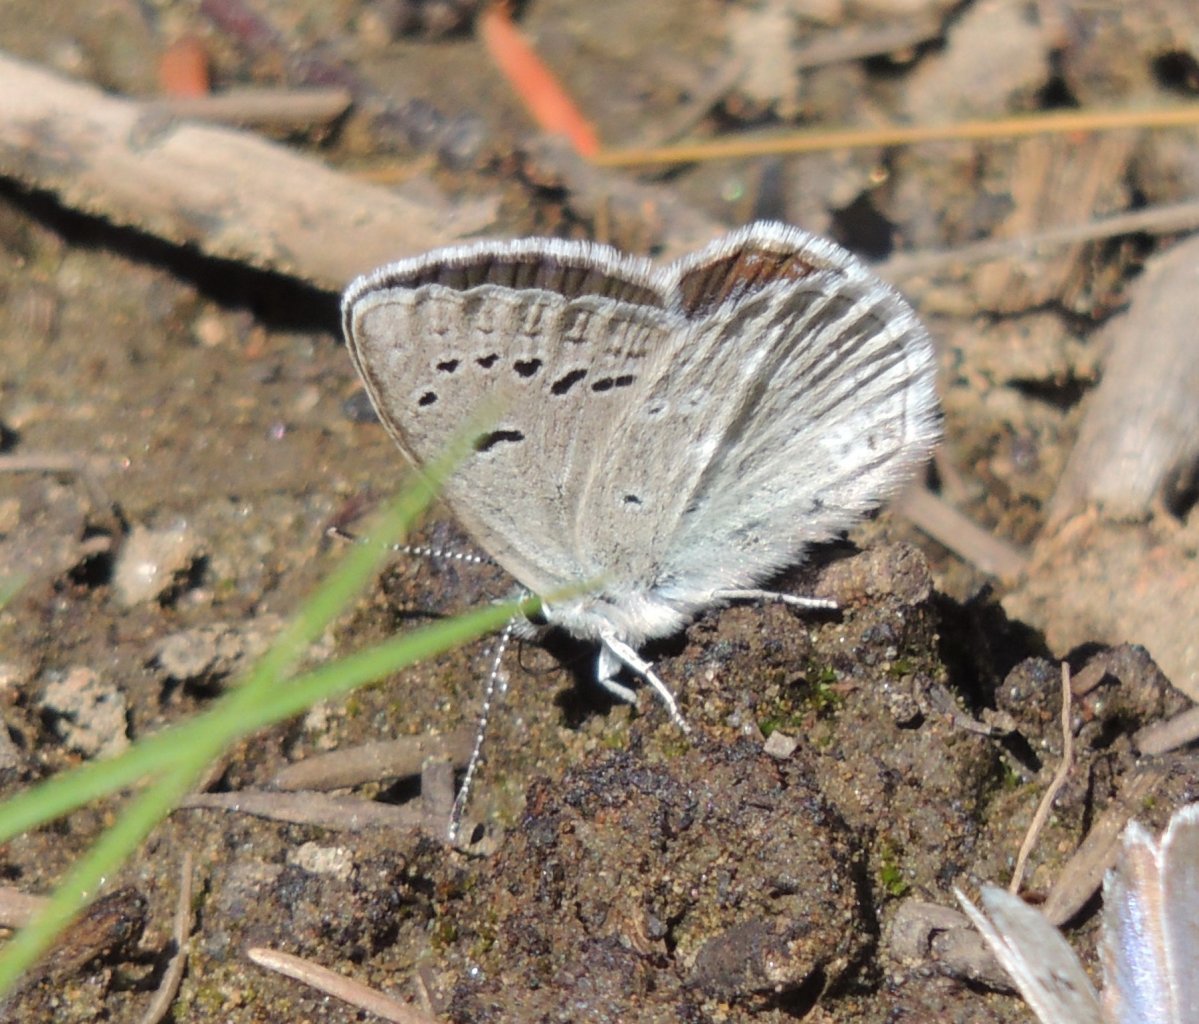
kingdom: Animalia
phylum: Arthropoda
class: Insecta
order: Lepidoptera
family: Lycaenidae
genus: Icaricia
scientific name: Icaricia icarioides
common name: Boisduval's Blue
